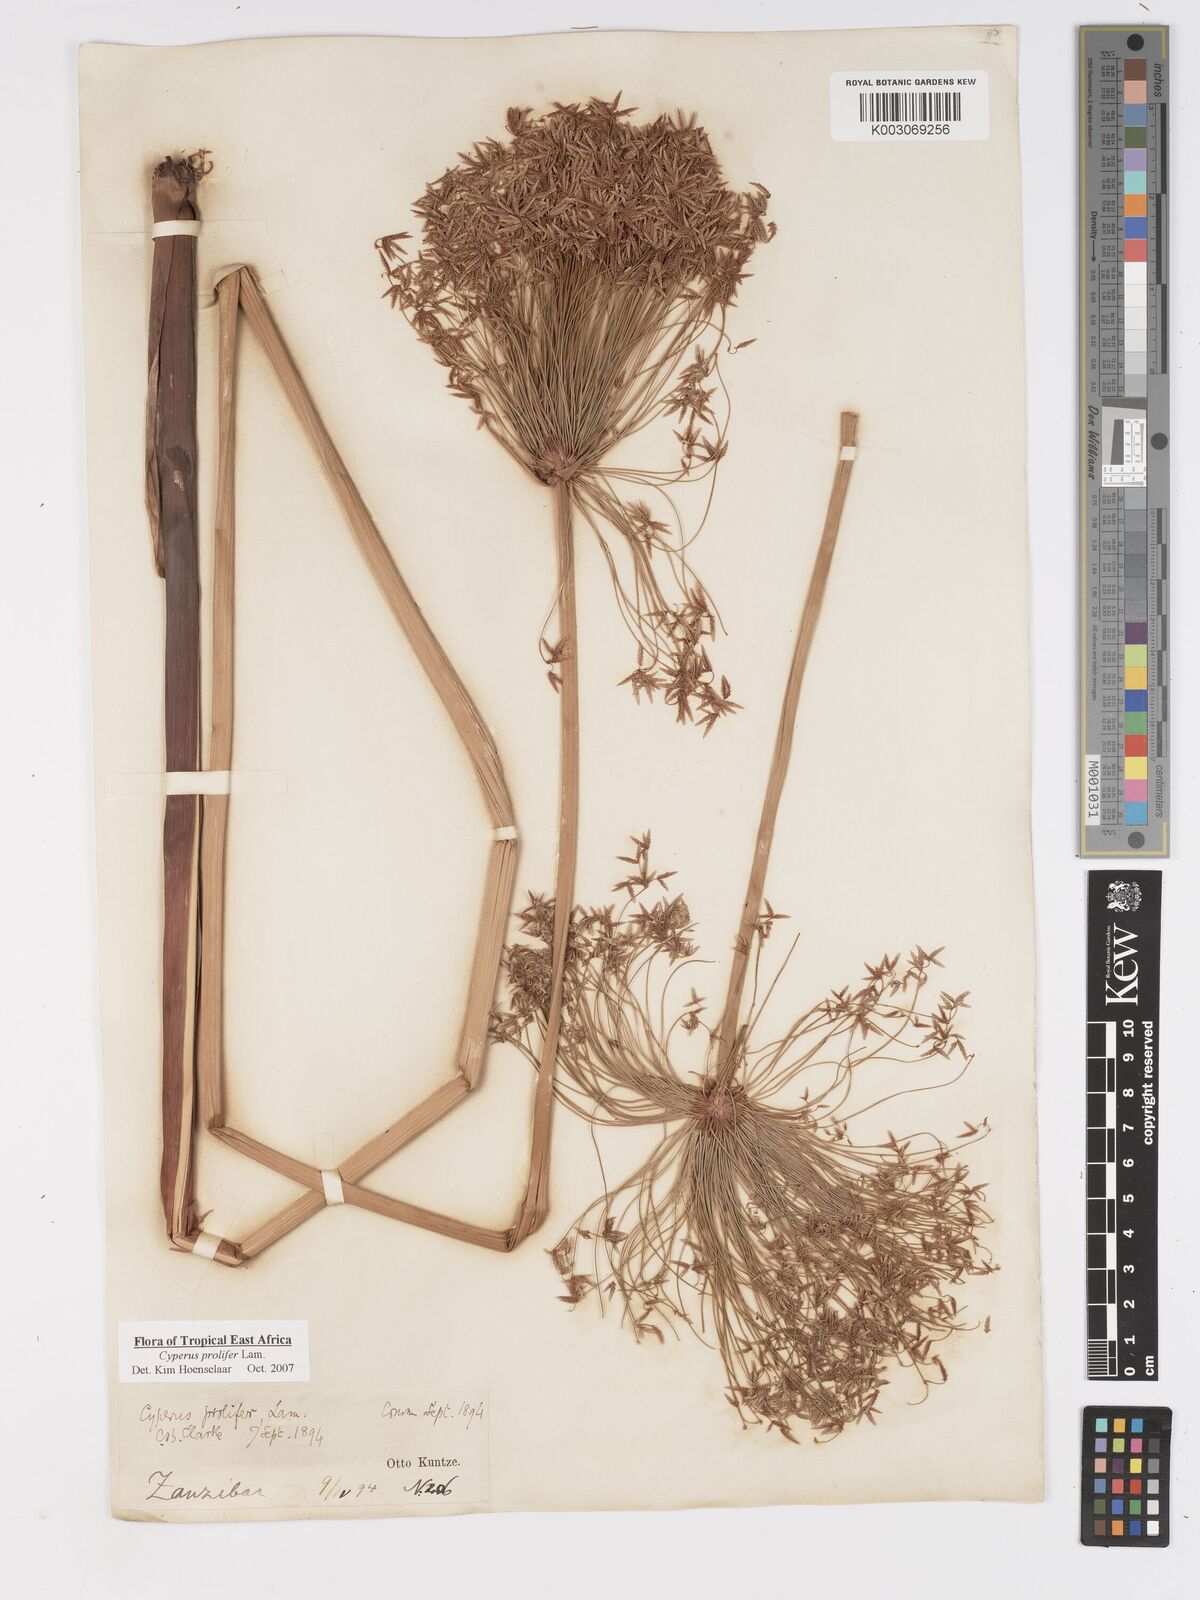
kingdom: Plantae
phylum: Tracheophyta
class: Liliopsida
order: Poales
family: Cyperaceae
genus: Cyperus
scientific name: Cyperus prolifer
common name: Miniature flatsedge
